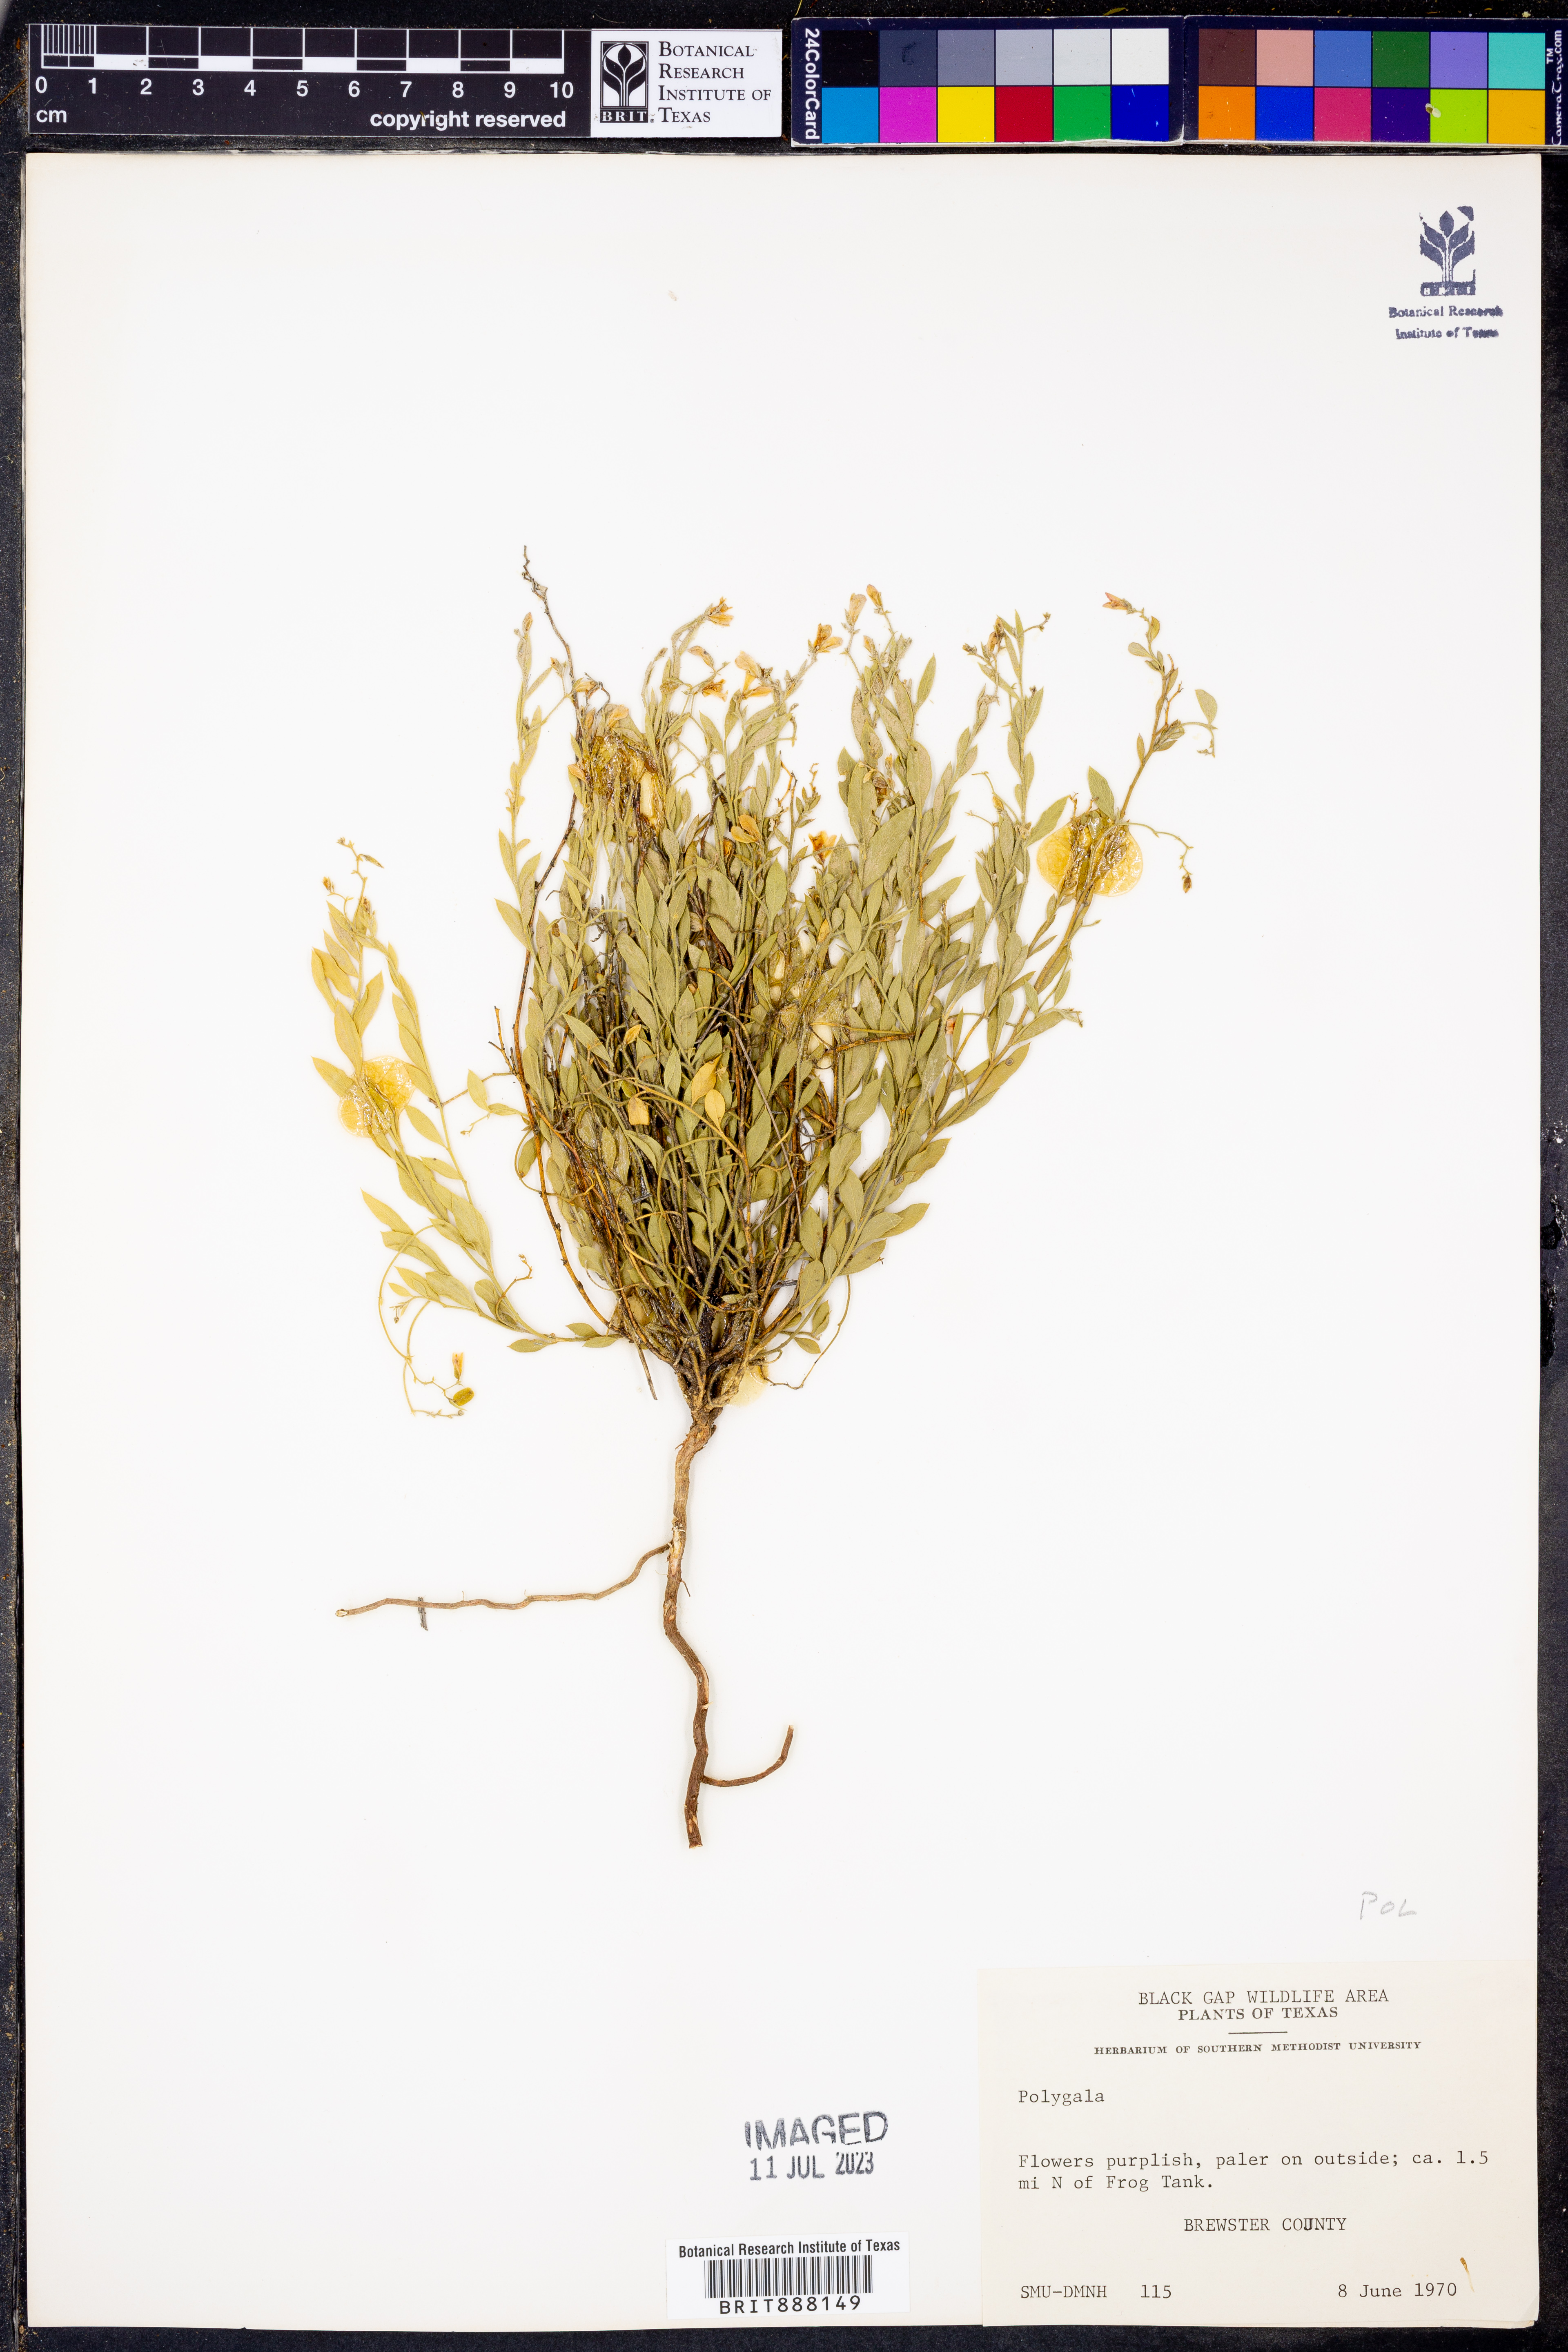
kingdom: Plantae
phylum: Tracheophyta
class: Magnoliopsida
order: Fabales
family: Polygalaceae
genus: Polygala
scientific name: Polygala
